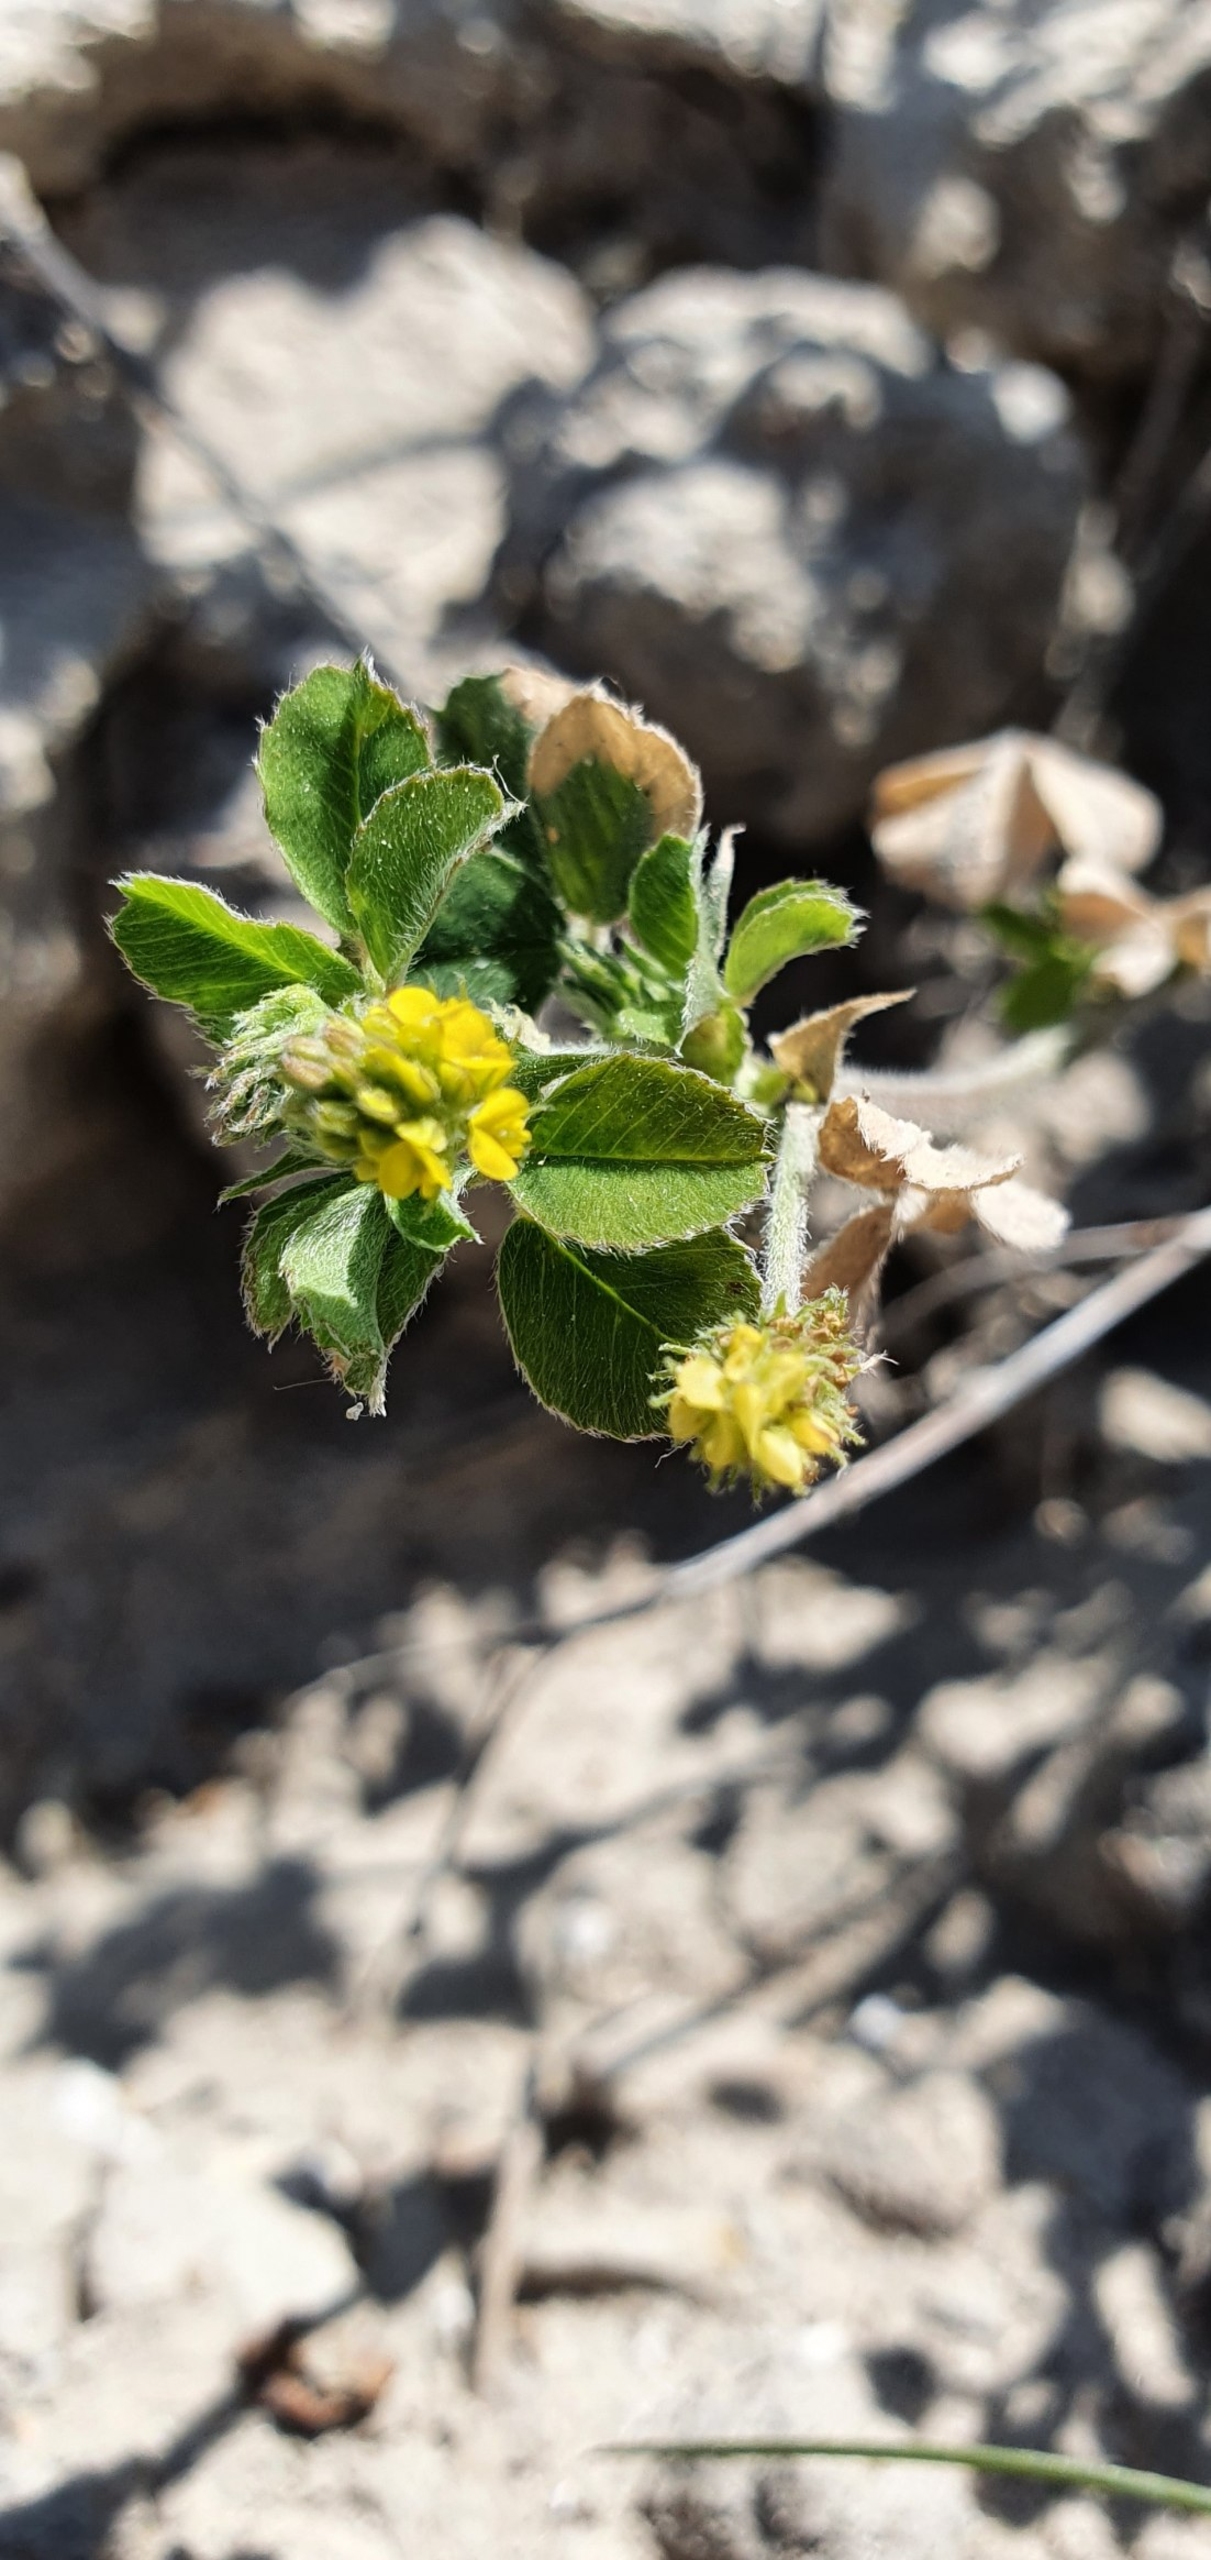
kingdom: Plantae
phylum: Tracheophyta
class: Magnoliopsida
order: Fabales
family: Fabaceae
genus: Medicago
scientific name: Medicago lupulina
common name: Humle-sneglebælg
